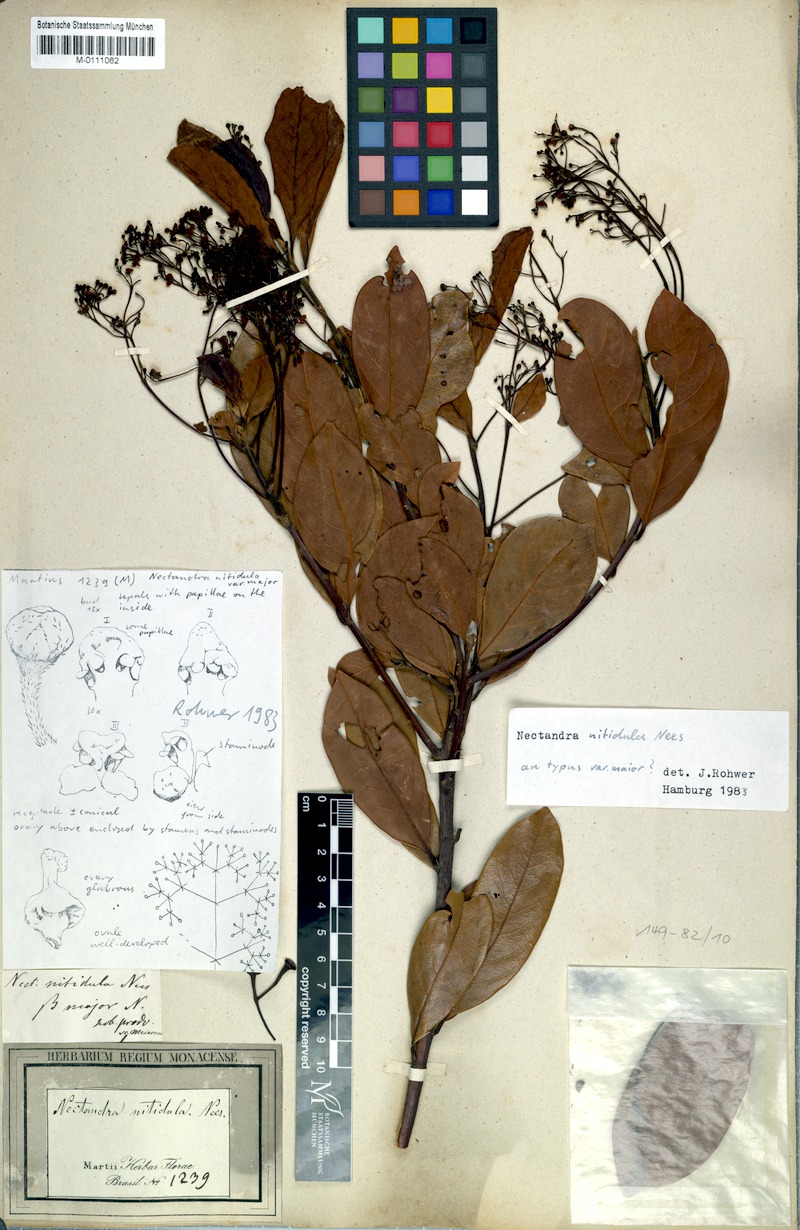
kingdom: Plantae
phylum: Tracheophyta
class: Magnoliopsida
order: Laurales
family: Lauraceae
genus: Nectandra
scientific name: Nectandra nitidula
